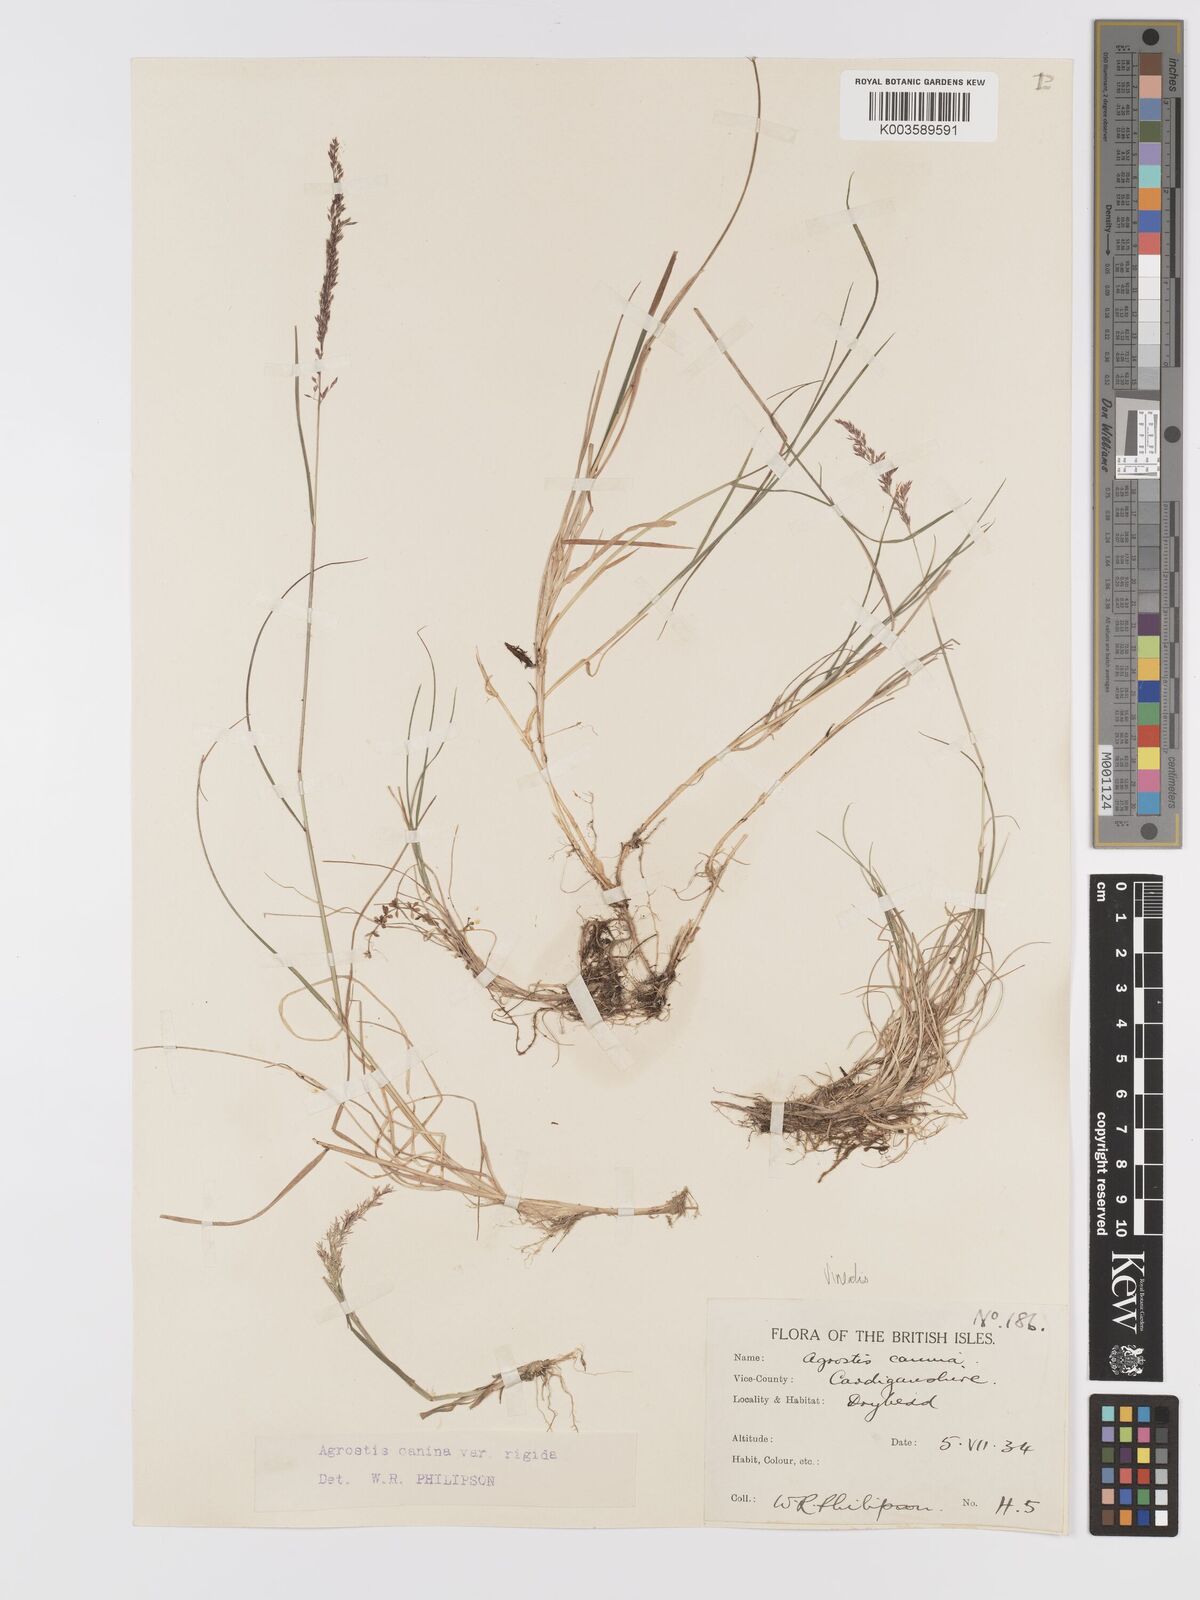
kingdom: Plantae
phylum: Tracheophyta
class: Liliopsida
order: Poales
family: Poaceae
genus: Agrostis
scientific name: Agrostis
